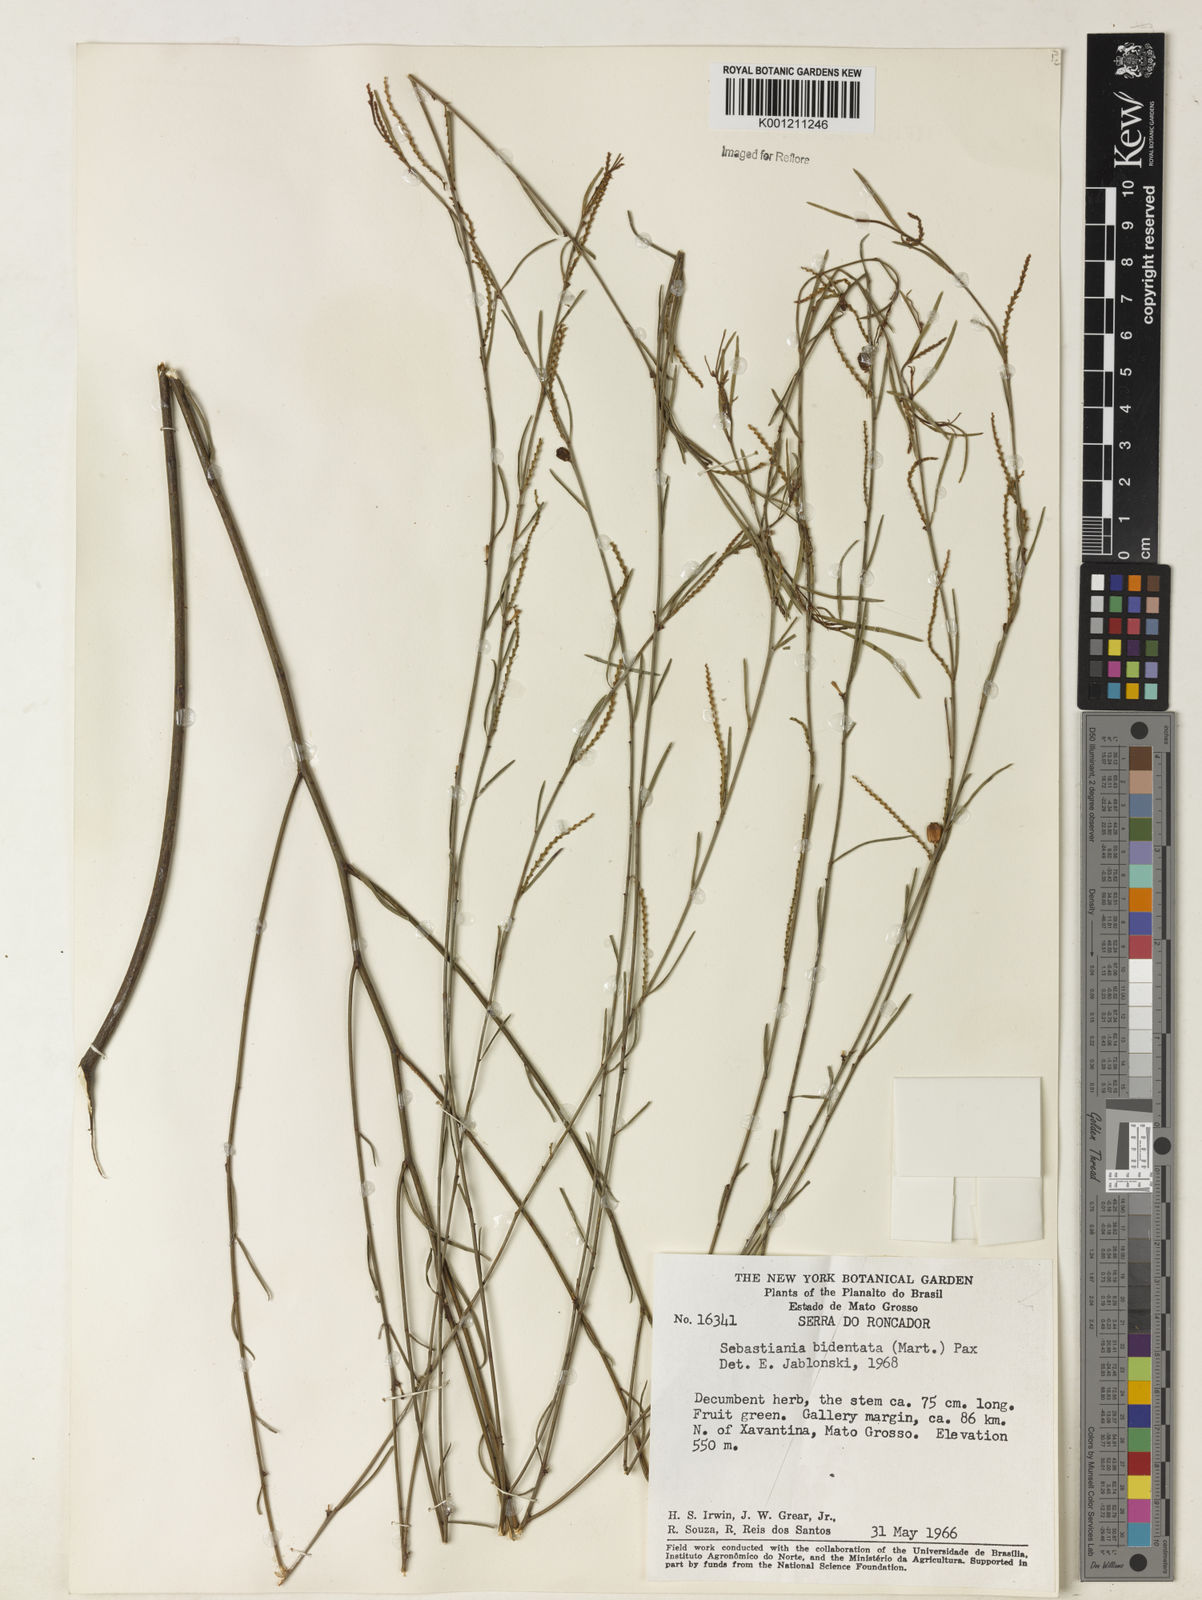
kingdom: Plantae
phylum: Tracheophyta
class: Magnoliopsida
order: Malpighiales
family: Euphorbiaceae
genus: Microstachys
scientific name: Microstachys bidentata
